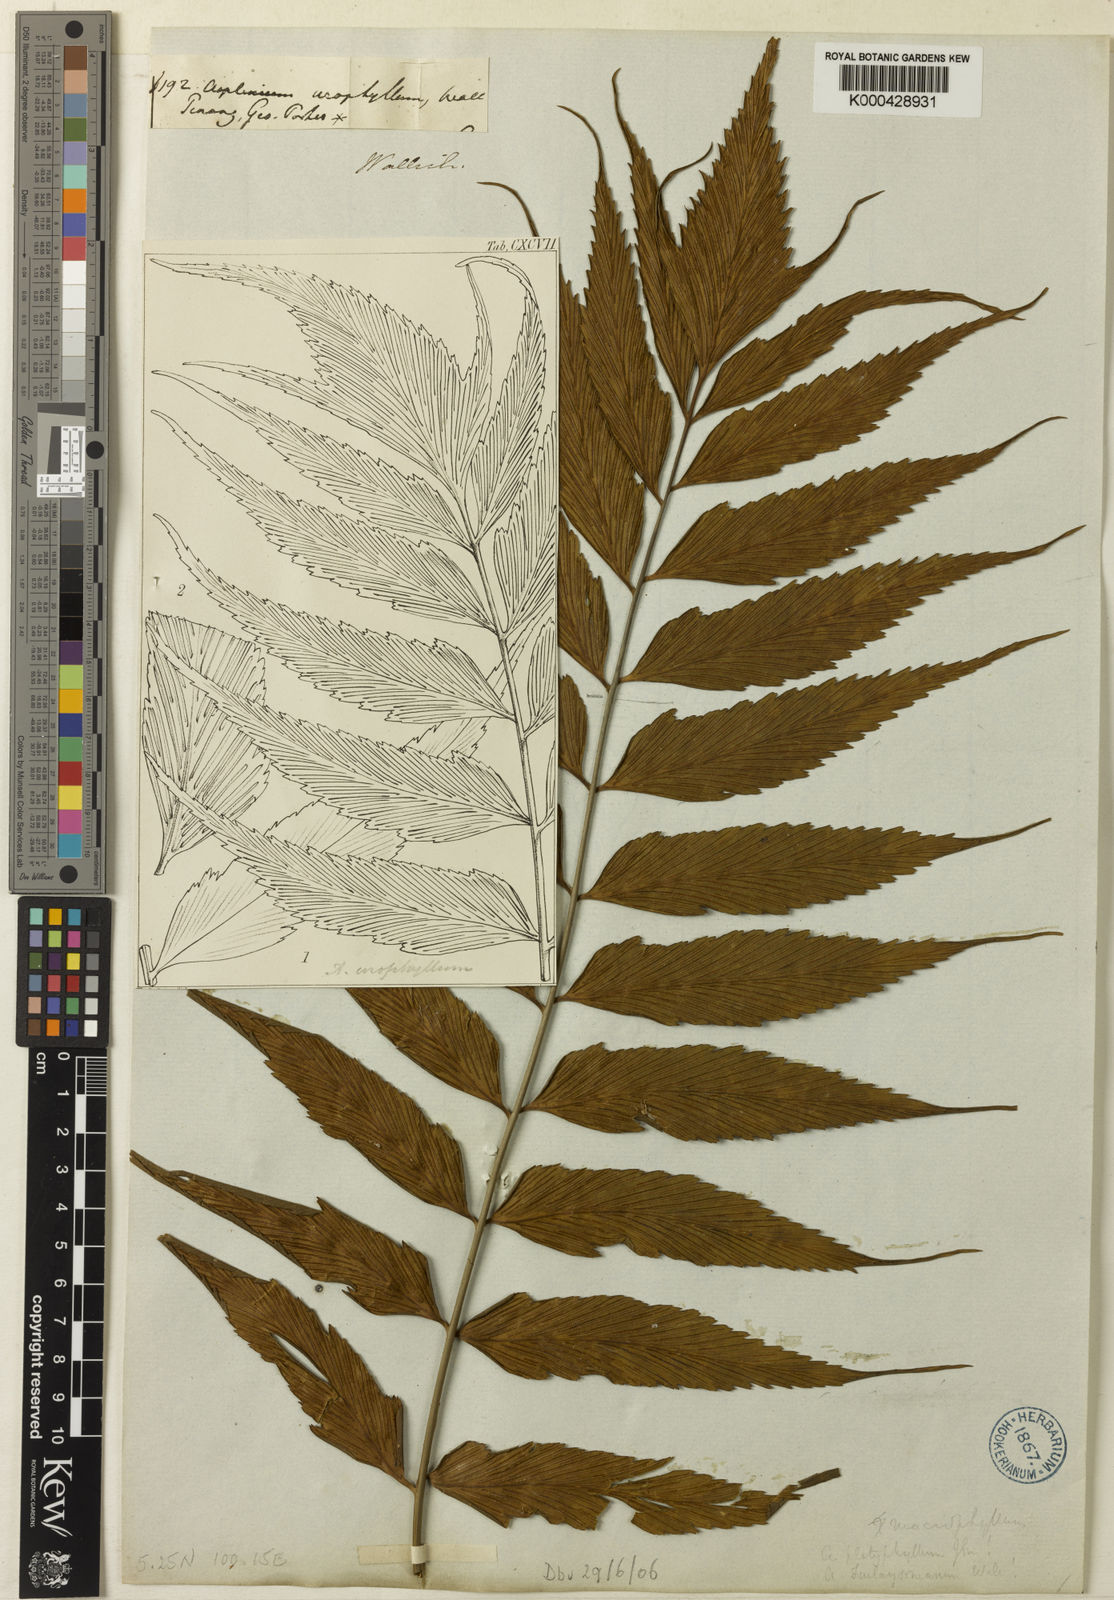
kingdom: Plantae
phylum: Tracheophyta
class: Polypodiopsida
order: Polypodiales
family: Aspleniaceae
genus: Asplenium
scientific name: Asplenium macrophyllum
